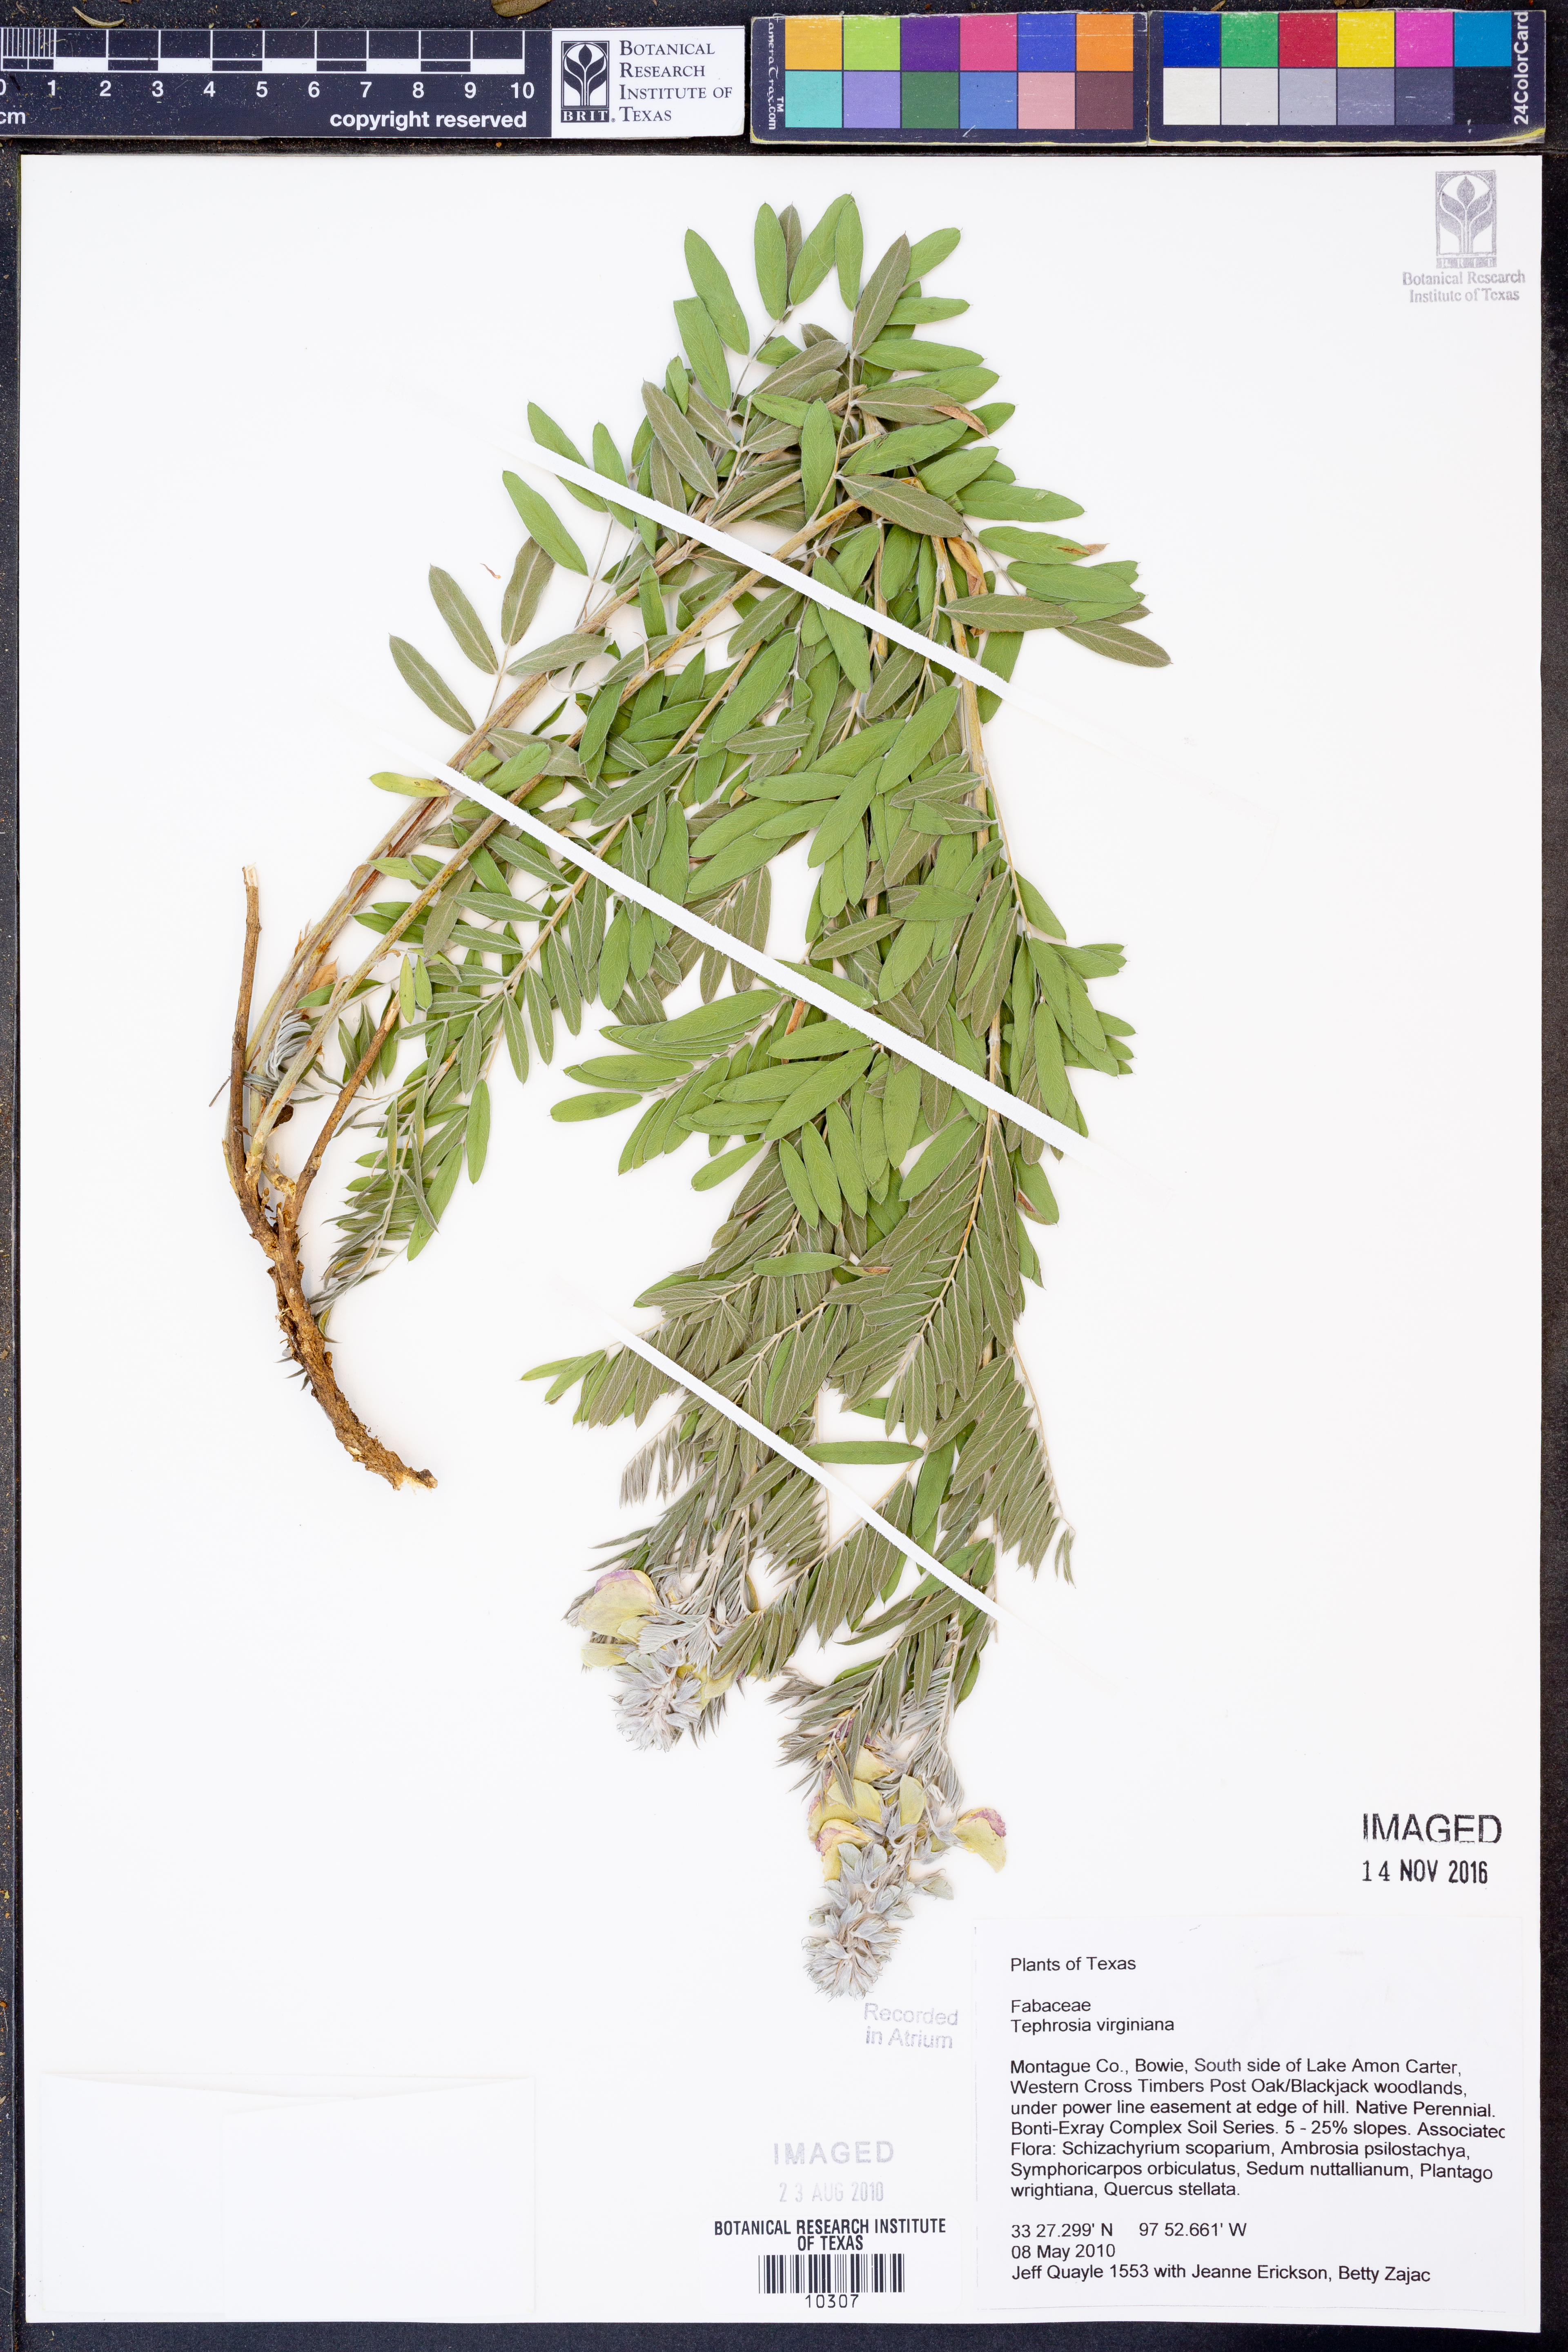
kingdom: Plantae
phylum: Tracheophyta
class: Magnoliopsida
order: Fabales
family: Fabaceae
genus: Tephrosia
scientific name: Tephrosia virginiana
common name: Rabbit-pea
